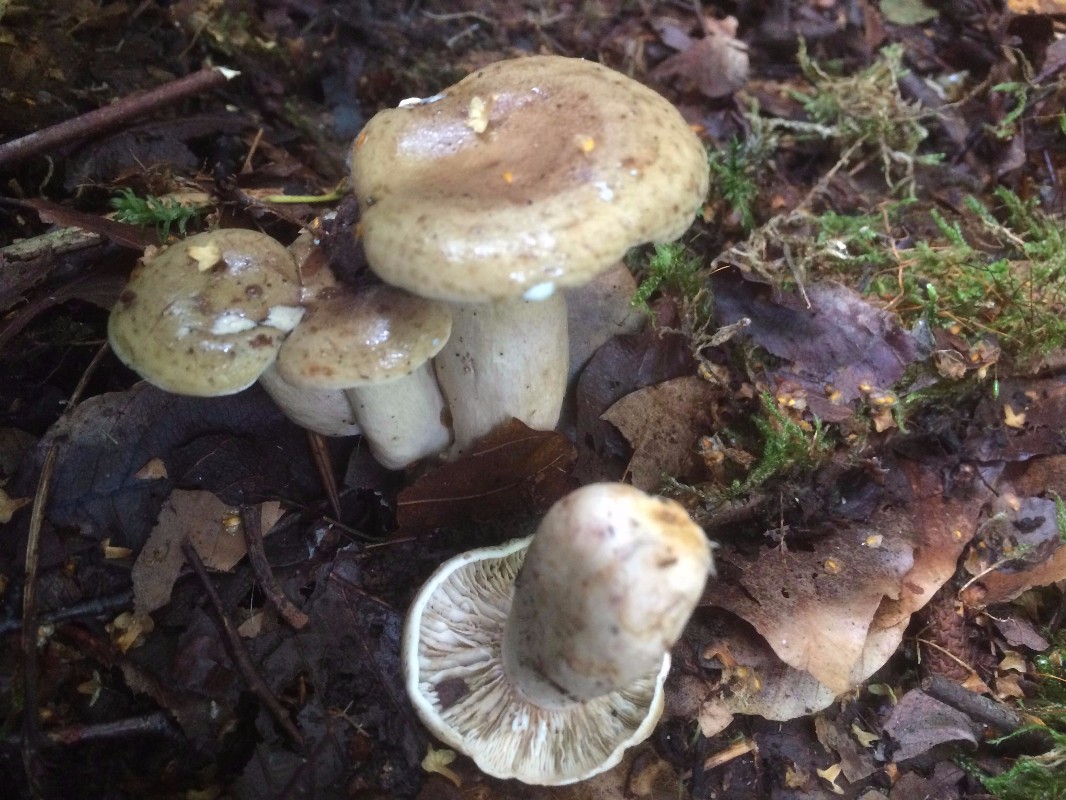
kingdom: Fungi
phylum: Basidiomycota
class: Agaricomycetes
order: Russulales
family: Russulaceae
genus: Lactarius
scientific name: Lactarius blennius
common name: dråbeplettet mælkehat
